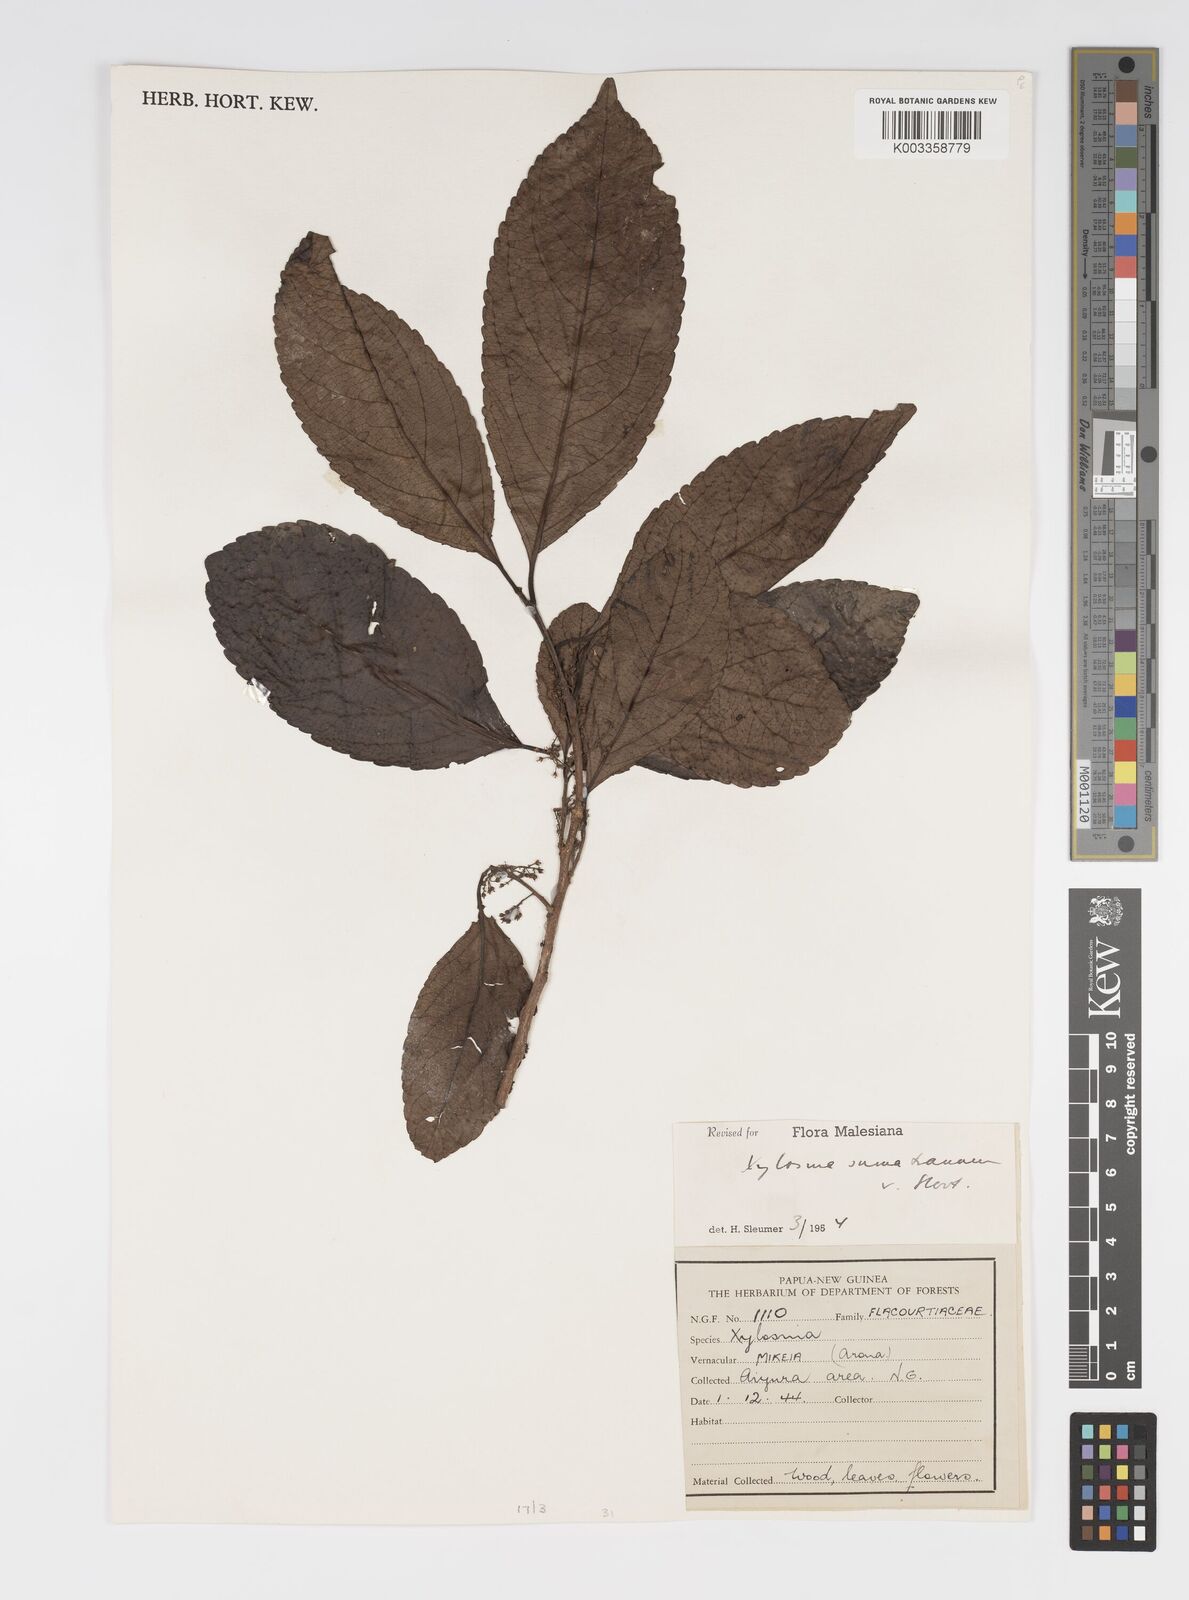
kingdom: Plantae
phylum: Tracheophyta
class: Magnoliopsida
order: Malpighiales
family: Salicaceae
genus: Xylosma
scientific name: Xylosma sumatrana
